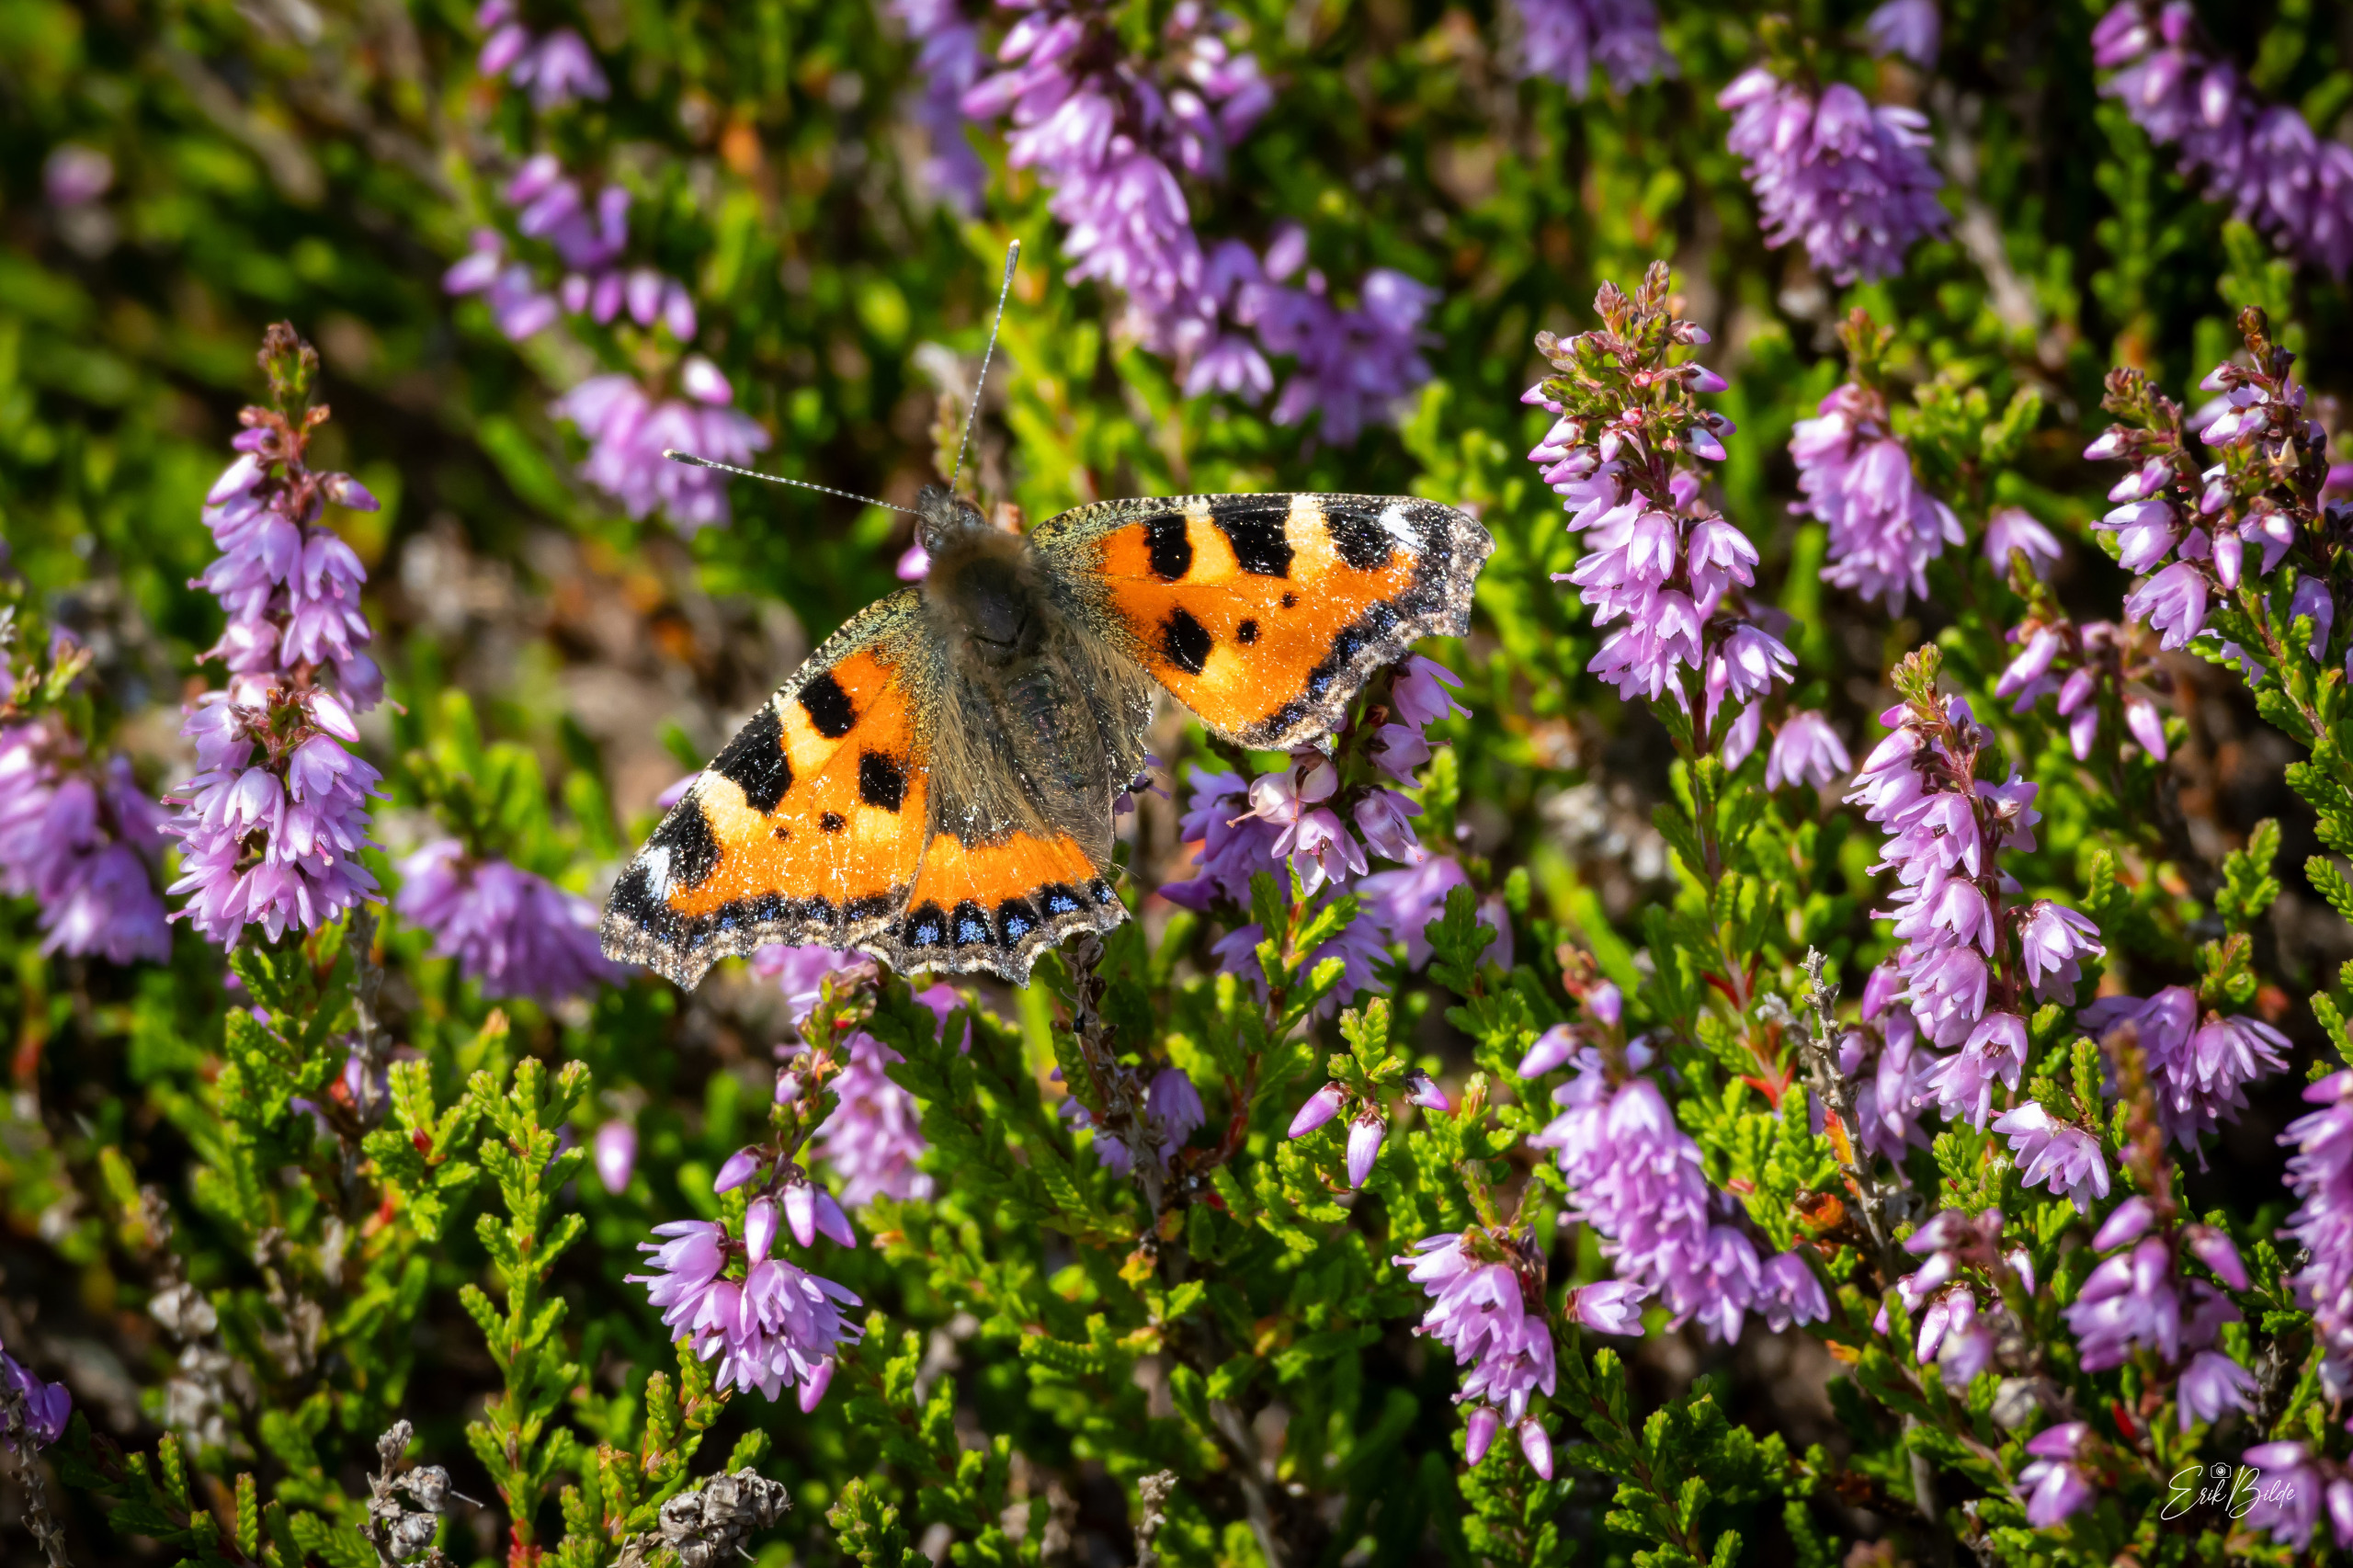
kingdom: Animalia
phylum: Arthropoda
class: Insecta
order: Lepidoptera
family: Nymphalidae
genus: Aglais
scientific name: Aglais urticae
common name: Nældens takvinge
